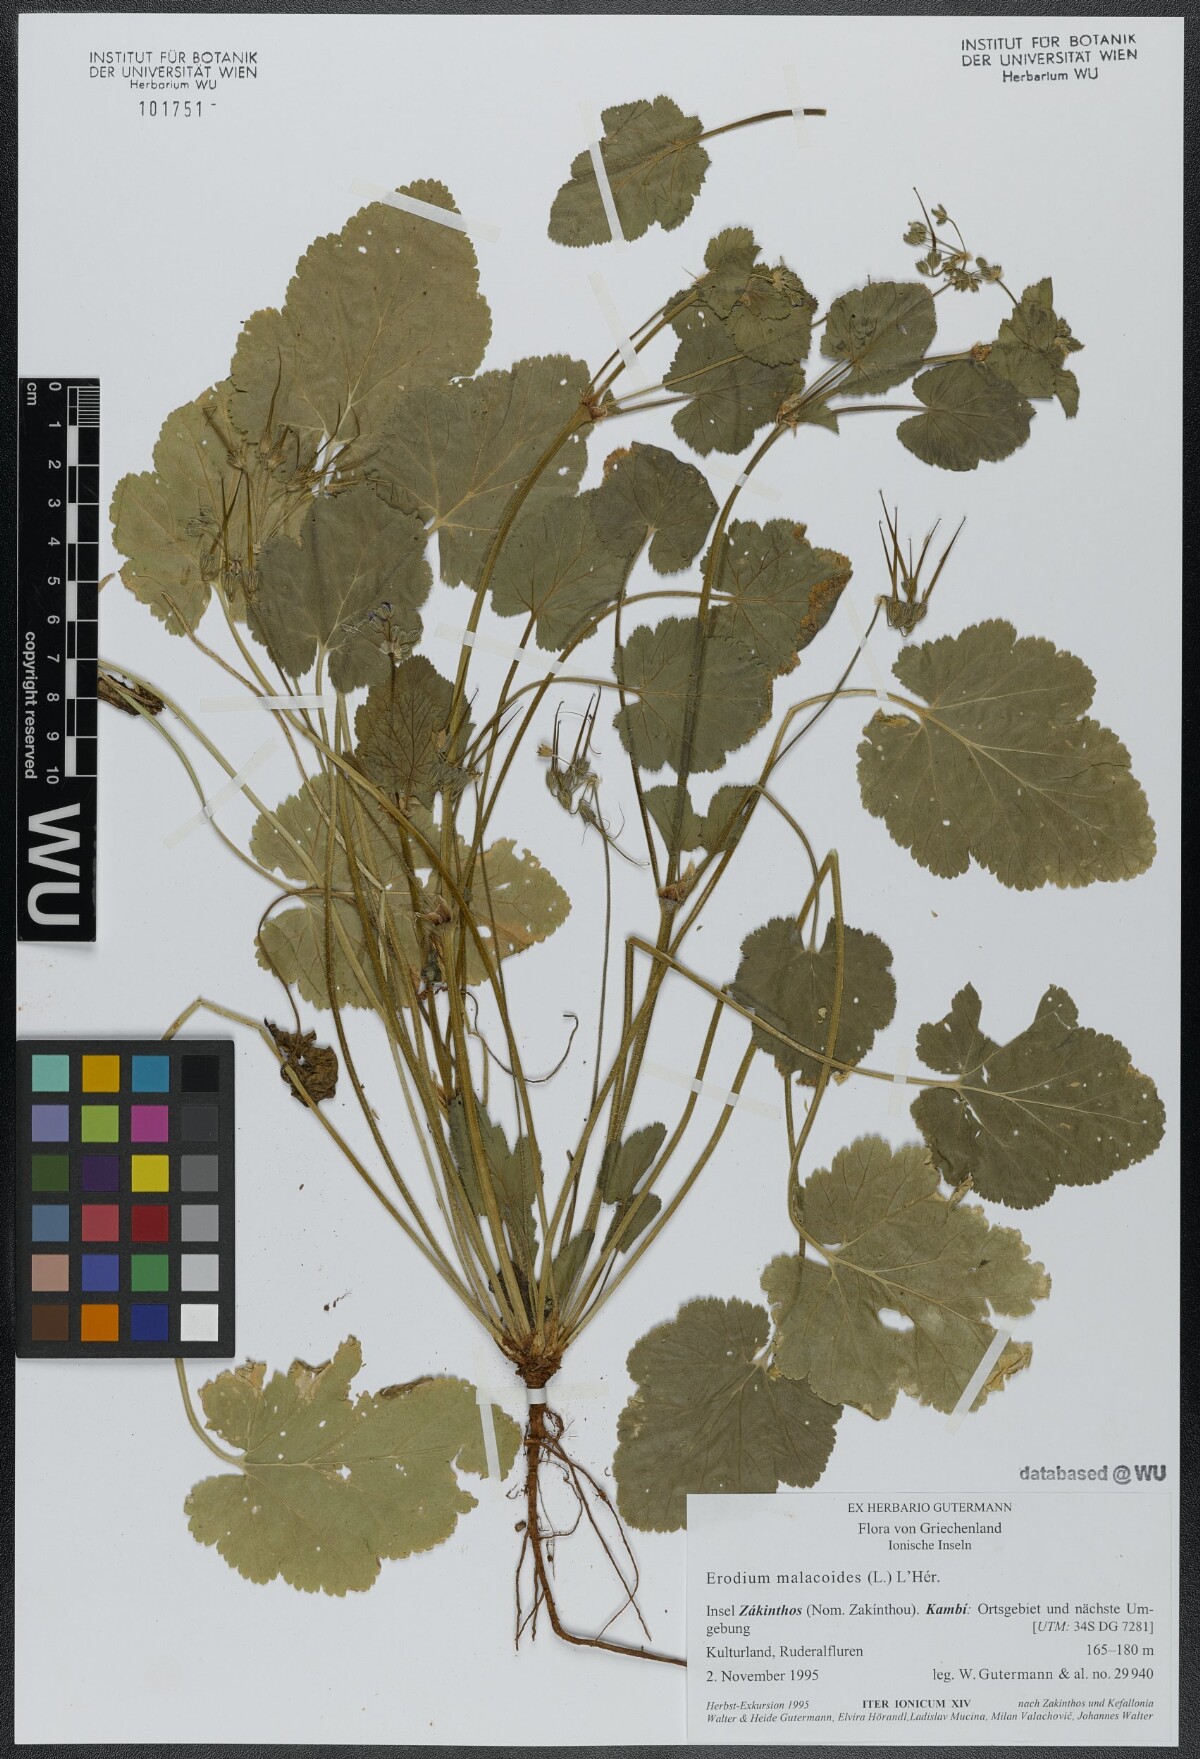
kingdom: Plantae
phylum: Tracheophyta
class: Magnoliopsida
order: Geraniales
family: Geraniaceae
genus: Erodium
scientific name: Erodium malacoides
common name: Soft stork's-bill
